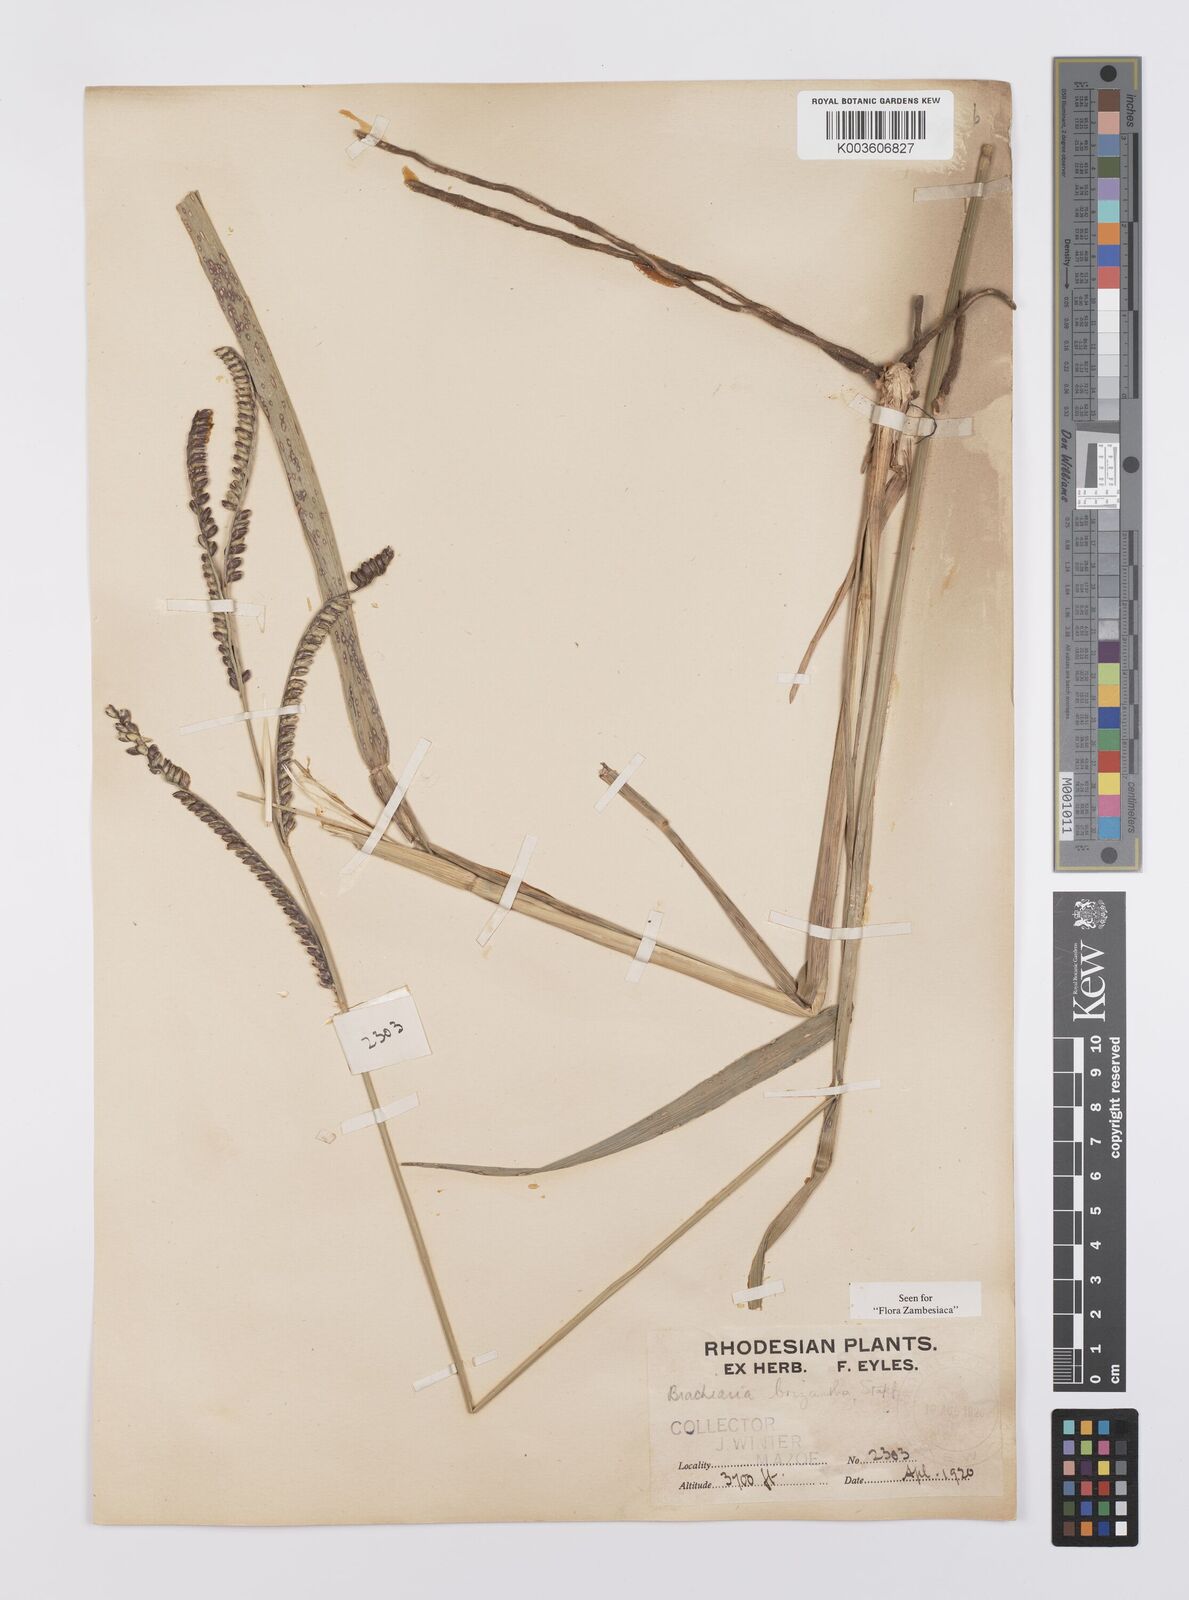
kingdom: Plantae
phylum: Tracheophyta
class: Liliopsida
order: Poales
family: Poaceae
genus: Urochloa
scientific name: Urochloa brizantha
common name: Palisade signalgrass
